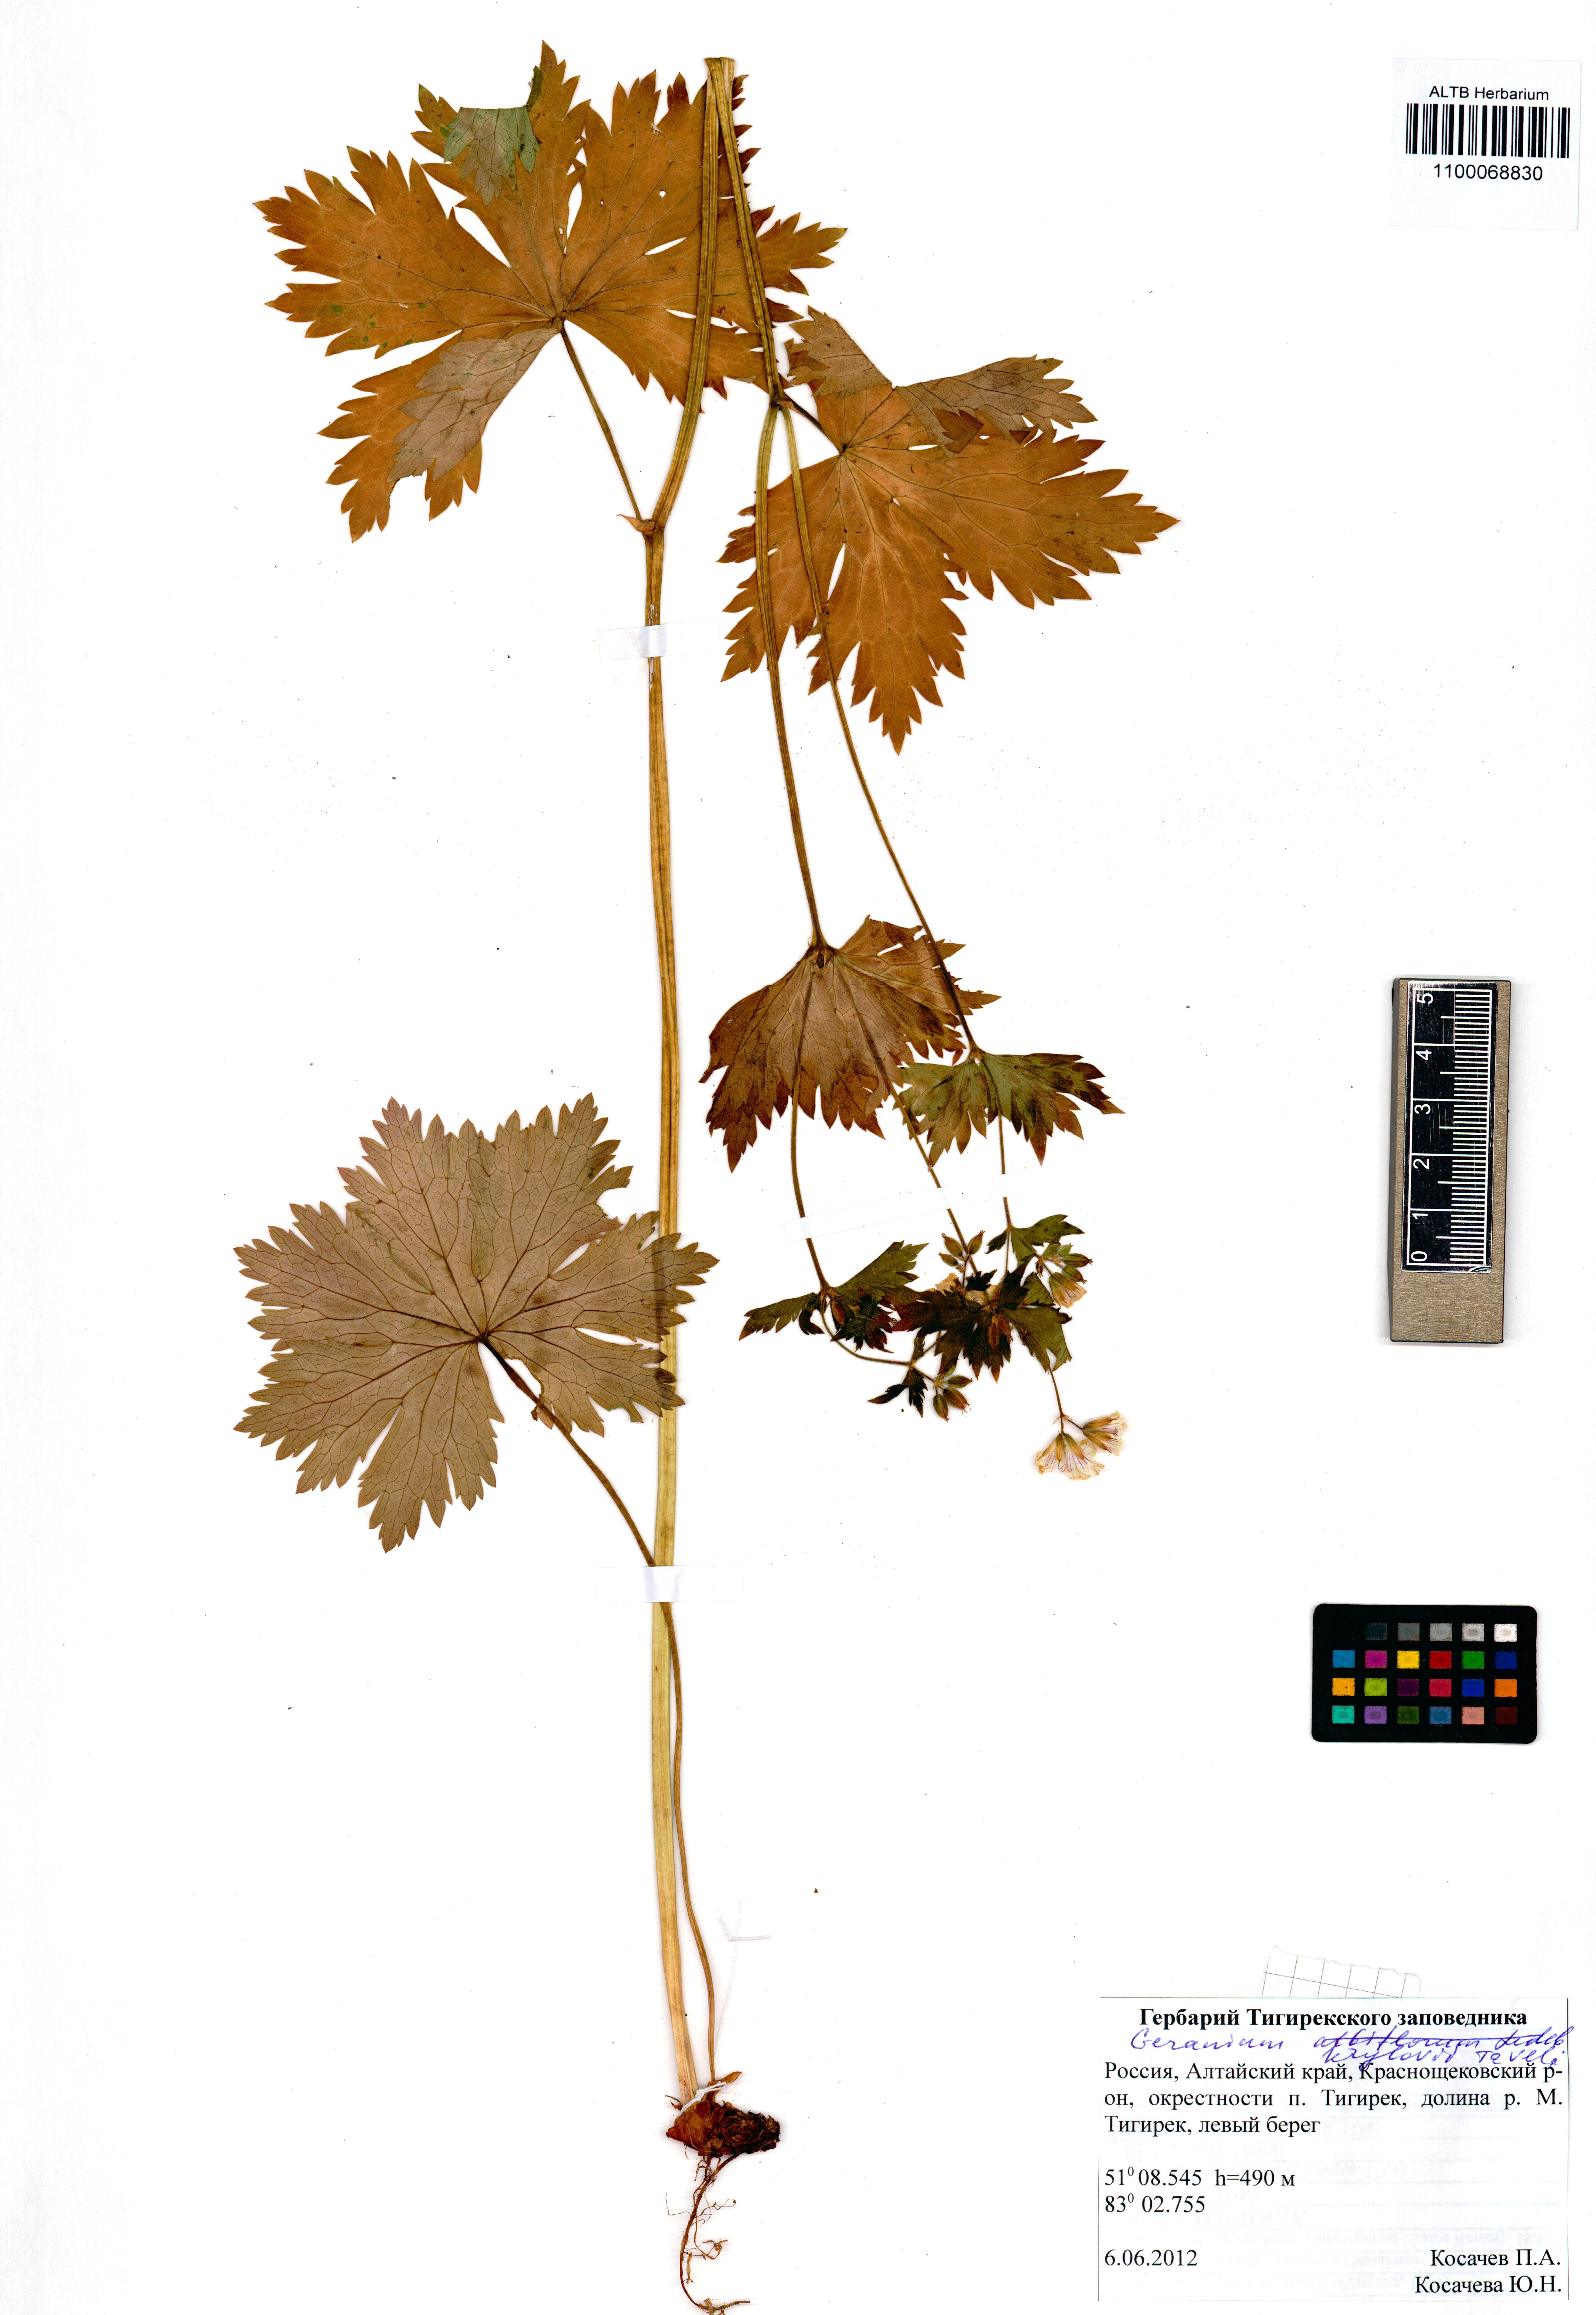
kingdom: Plantae
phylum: Tracheophyta
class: Magnoliopsida
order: Geraniales
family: Geraniaceae
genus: Geranium
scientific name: Geranium sylvaticum
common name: Wood crane's-bill
